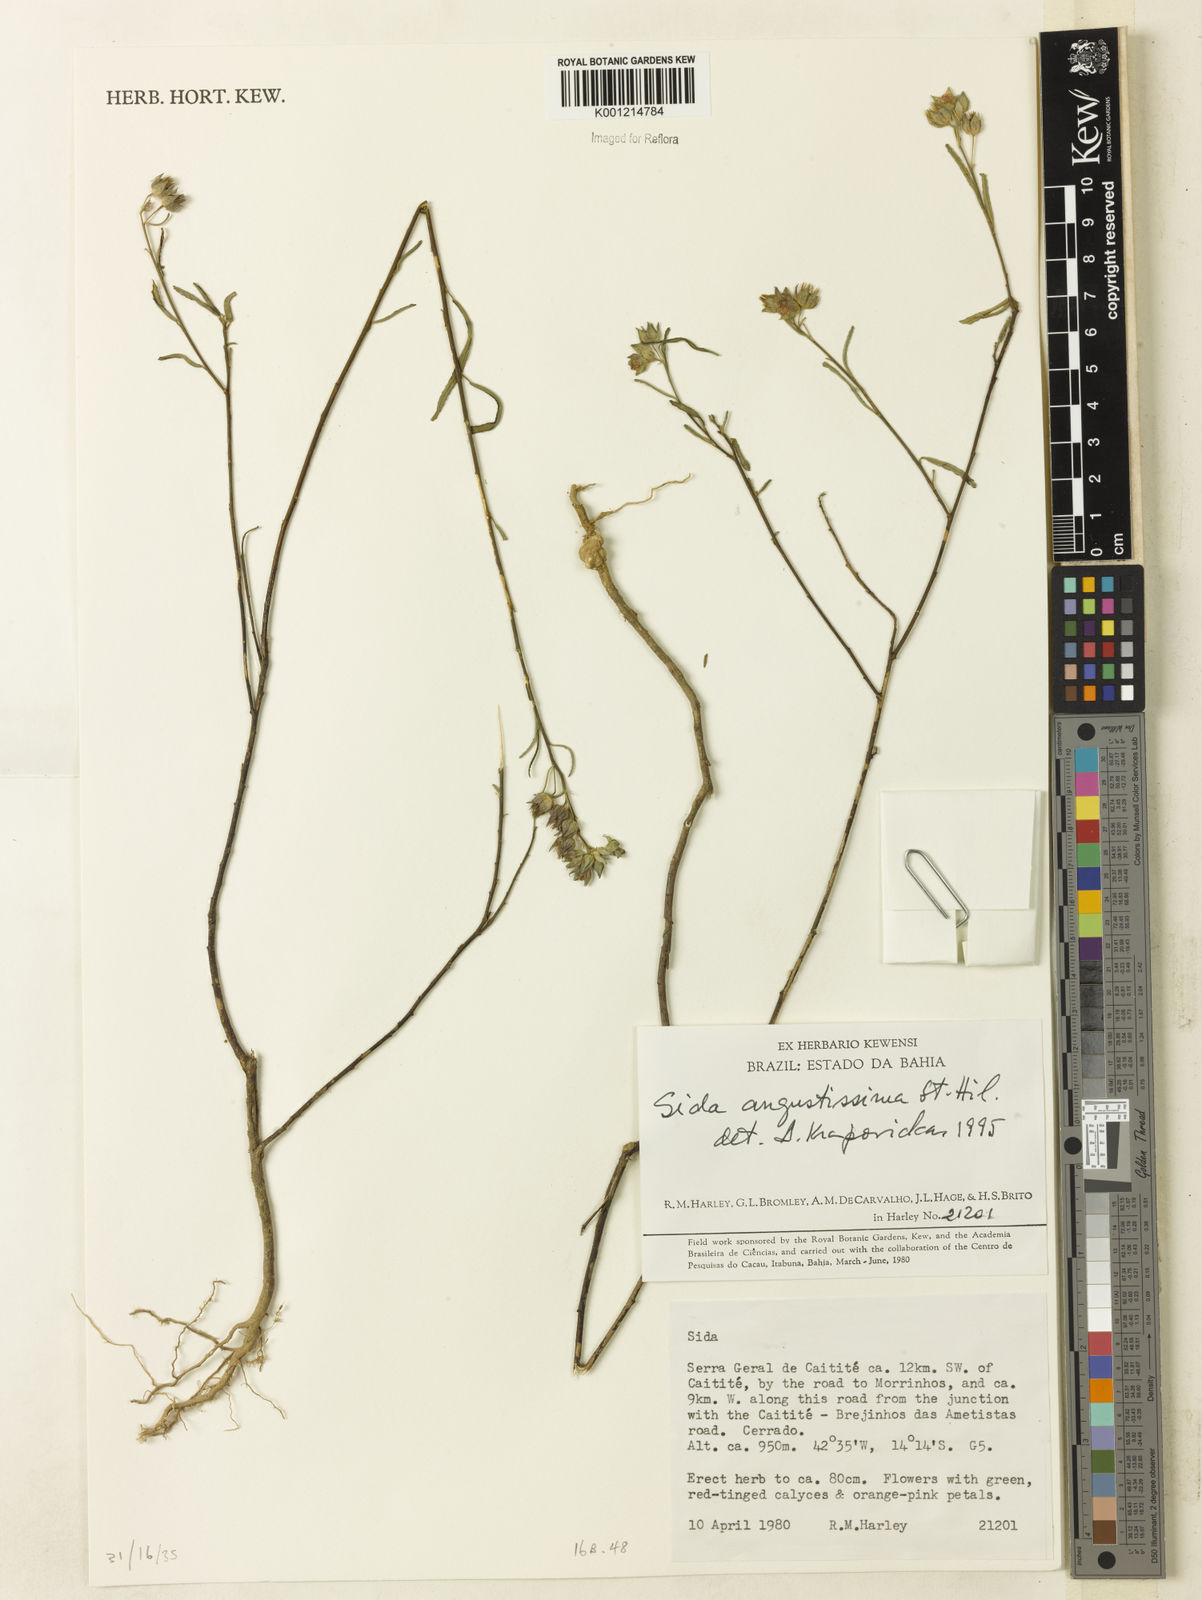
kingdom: Plantae
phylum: Tracheophyta
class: Magnoliopsida
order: Malvales
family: Malvaceae
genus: Sida
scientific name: Sida angustissima
